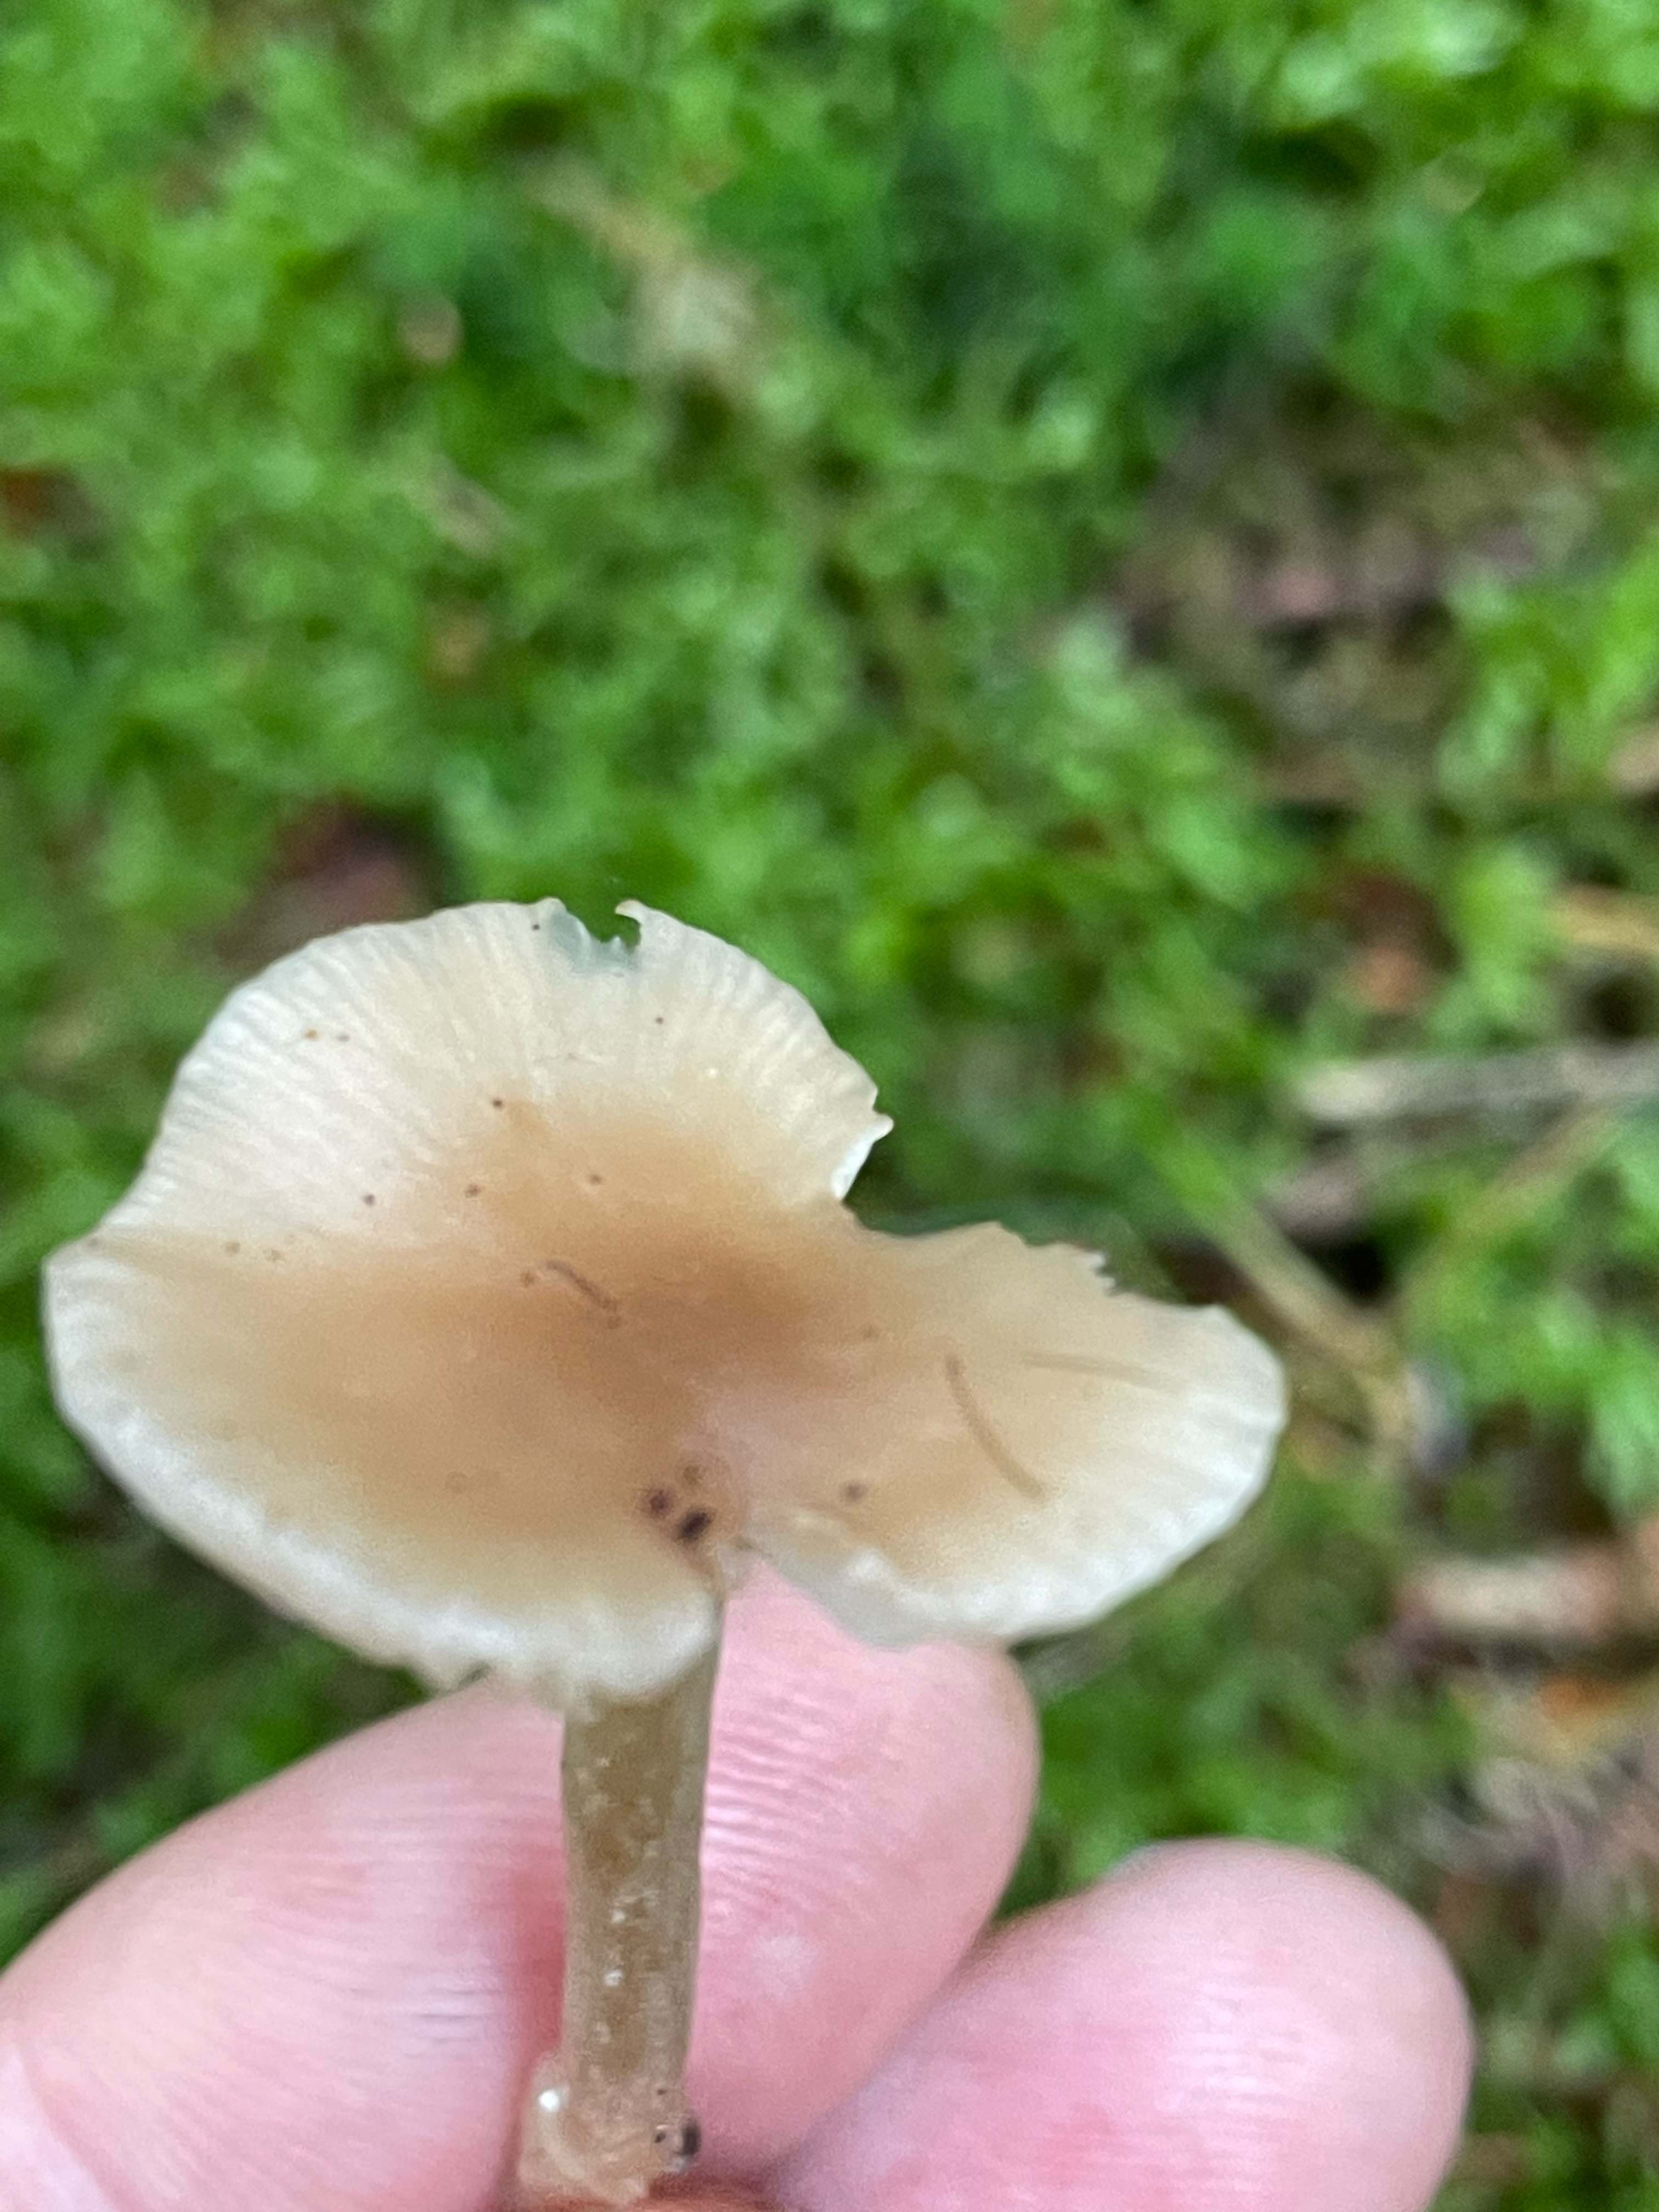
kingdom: Fungi
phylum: Basidiomycota
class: Agaricomycetes
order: Agaricales
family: Tricholomataceae
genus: Clitocybe
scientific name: Clitocybe fragrans
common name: vellugtende tragthat
